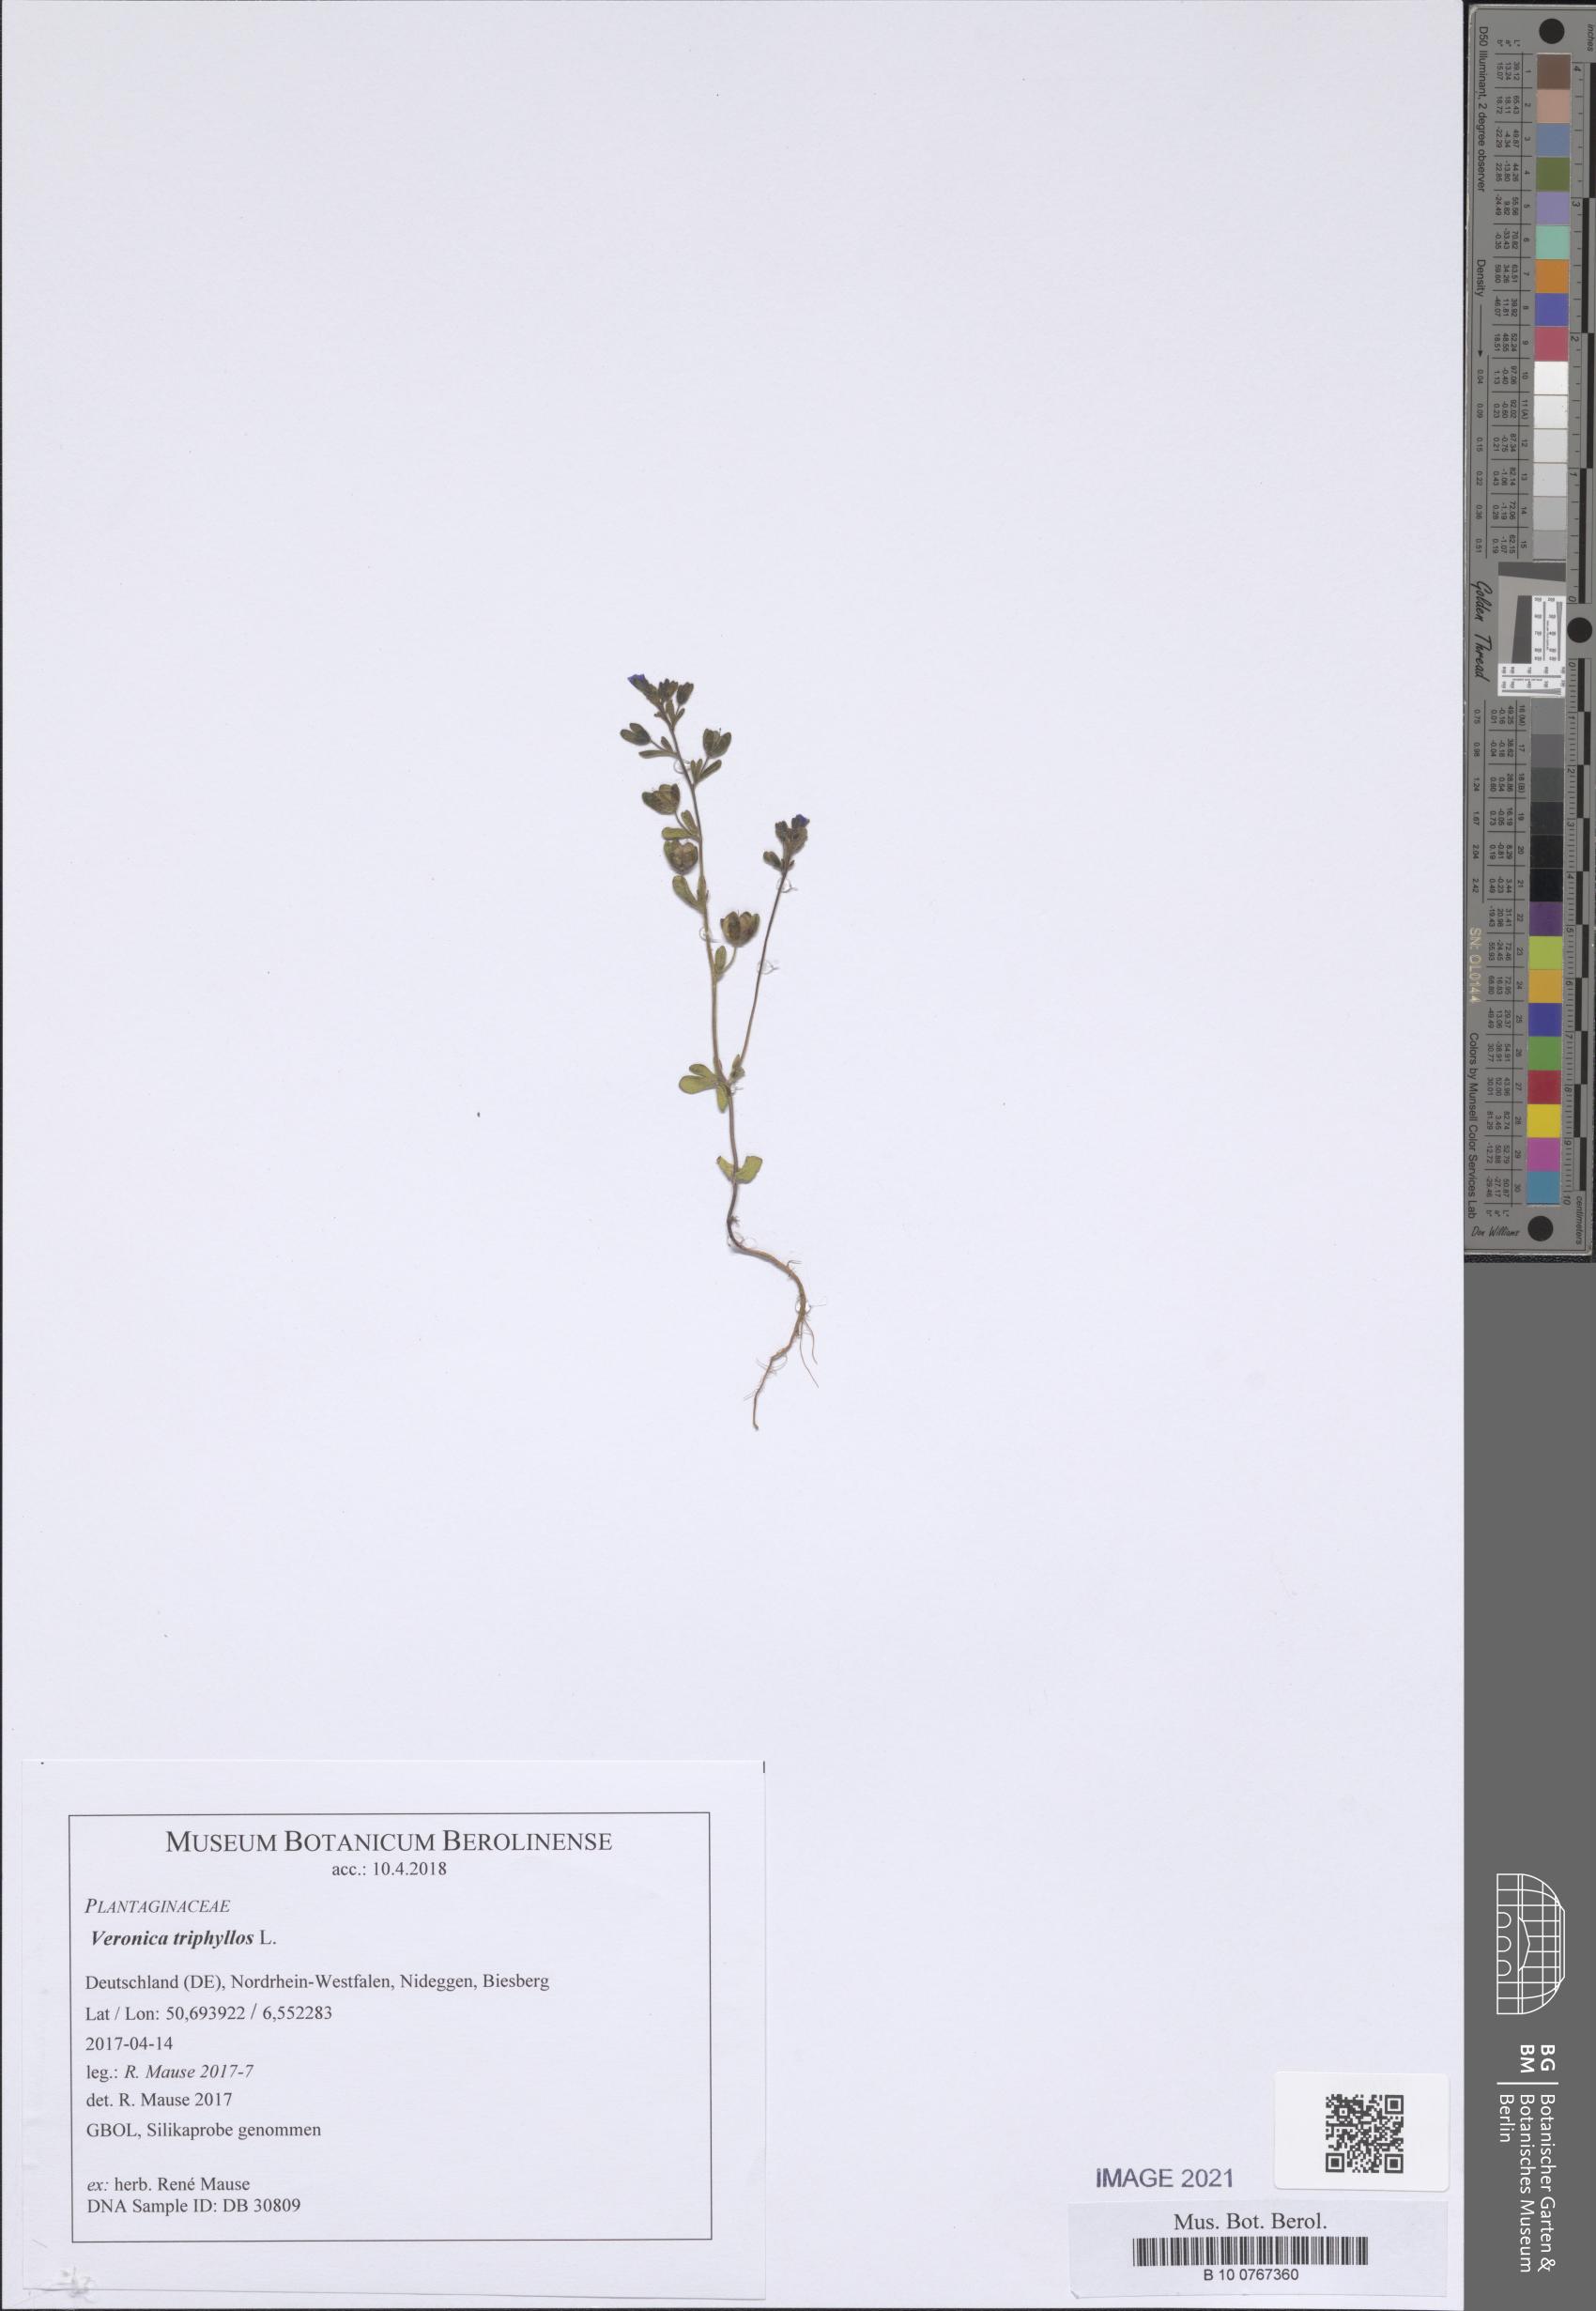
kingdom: Plantae
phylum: Tracheophyta
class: Magnoliopsida
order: Lamiales
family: Plantaginaceae
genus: Veronica
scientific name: Veronica triphyllos
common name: Fingered speedwell
